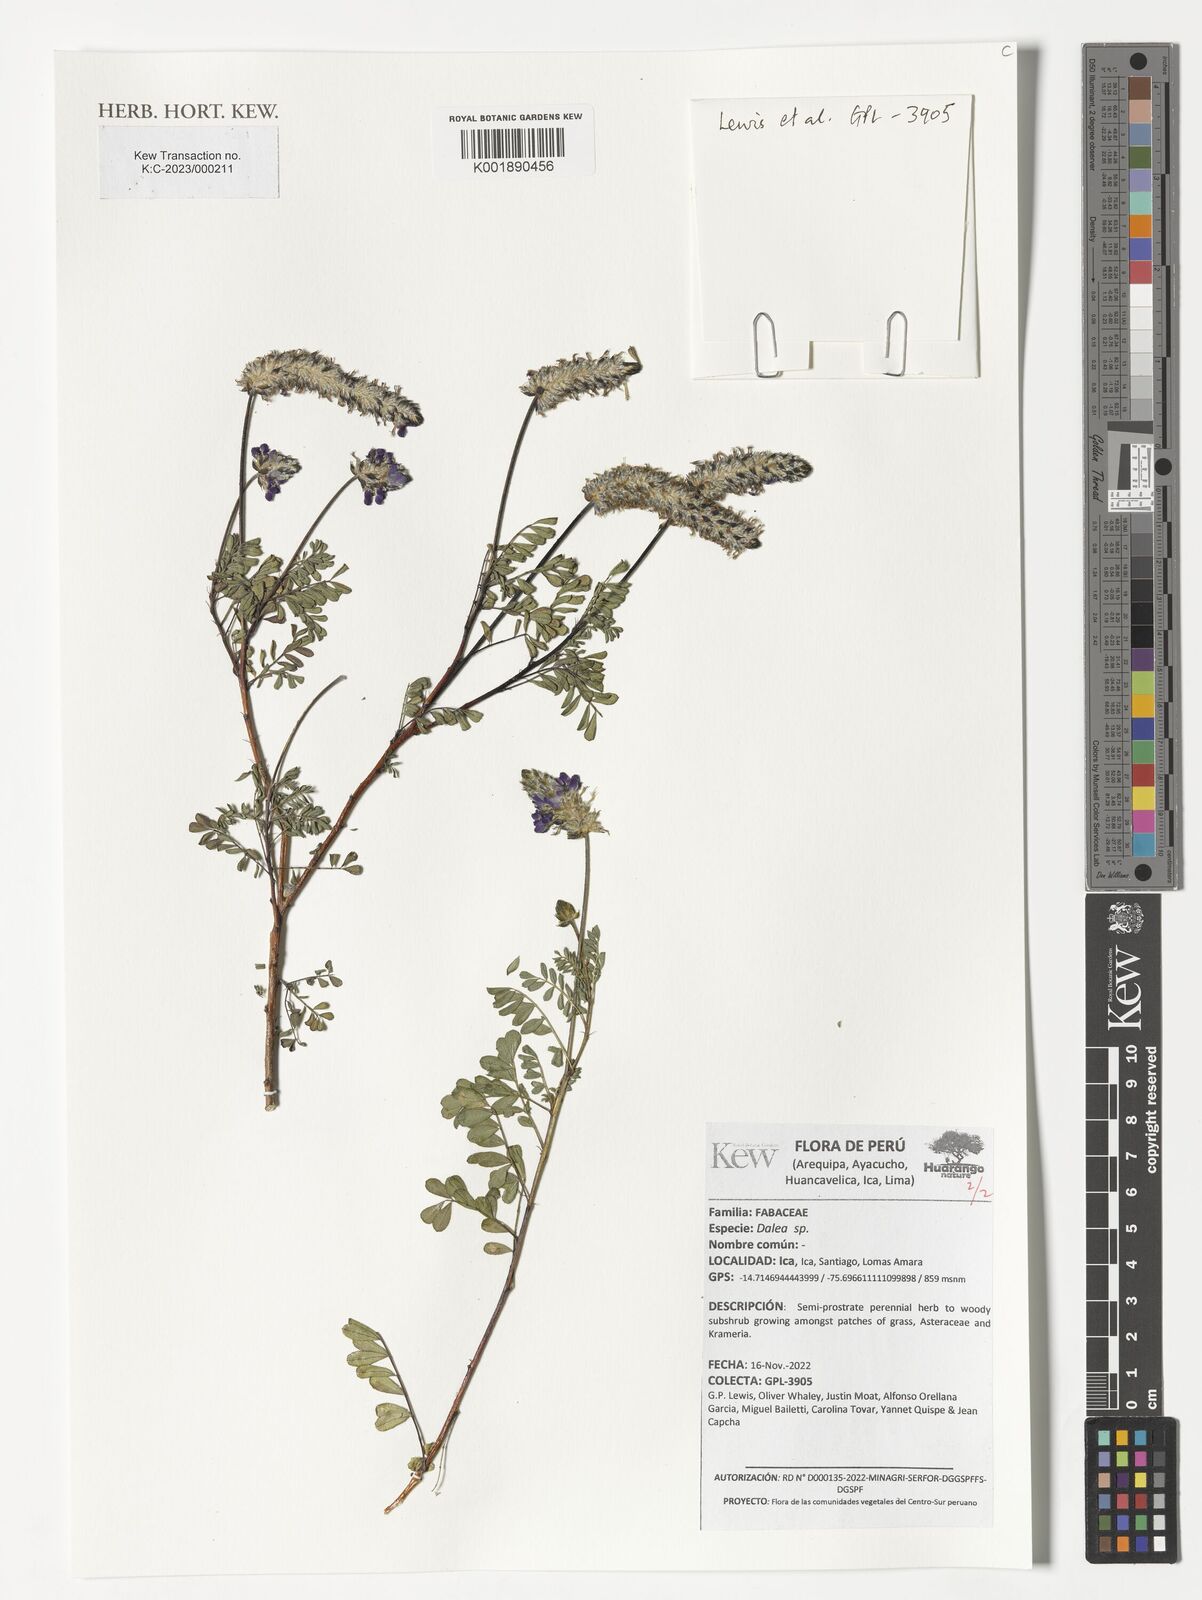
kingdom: Plantae
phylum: Tracheophyta
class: Magnoliopsida
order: Fabales
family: Fabaceae
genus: Dalea
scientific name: Dalea
